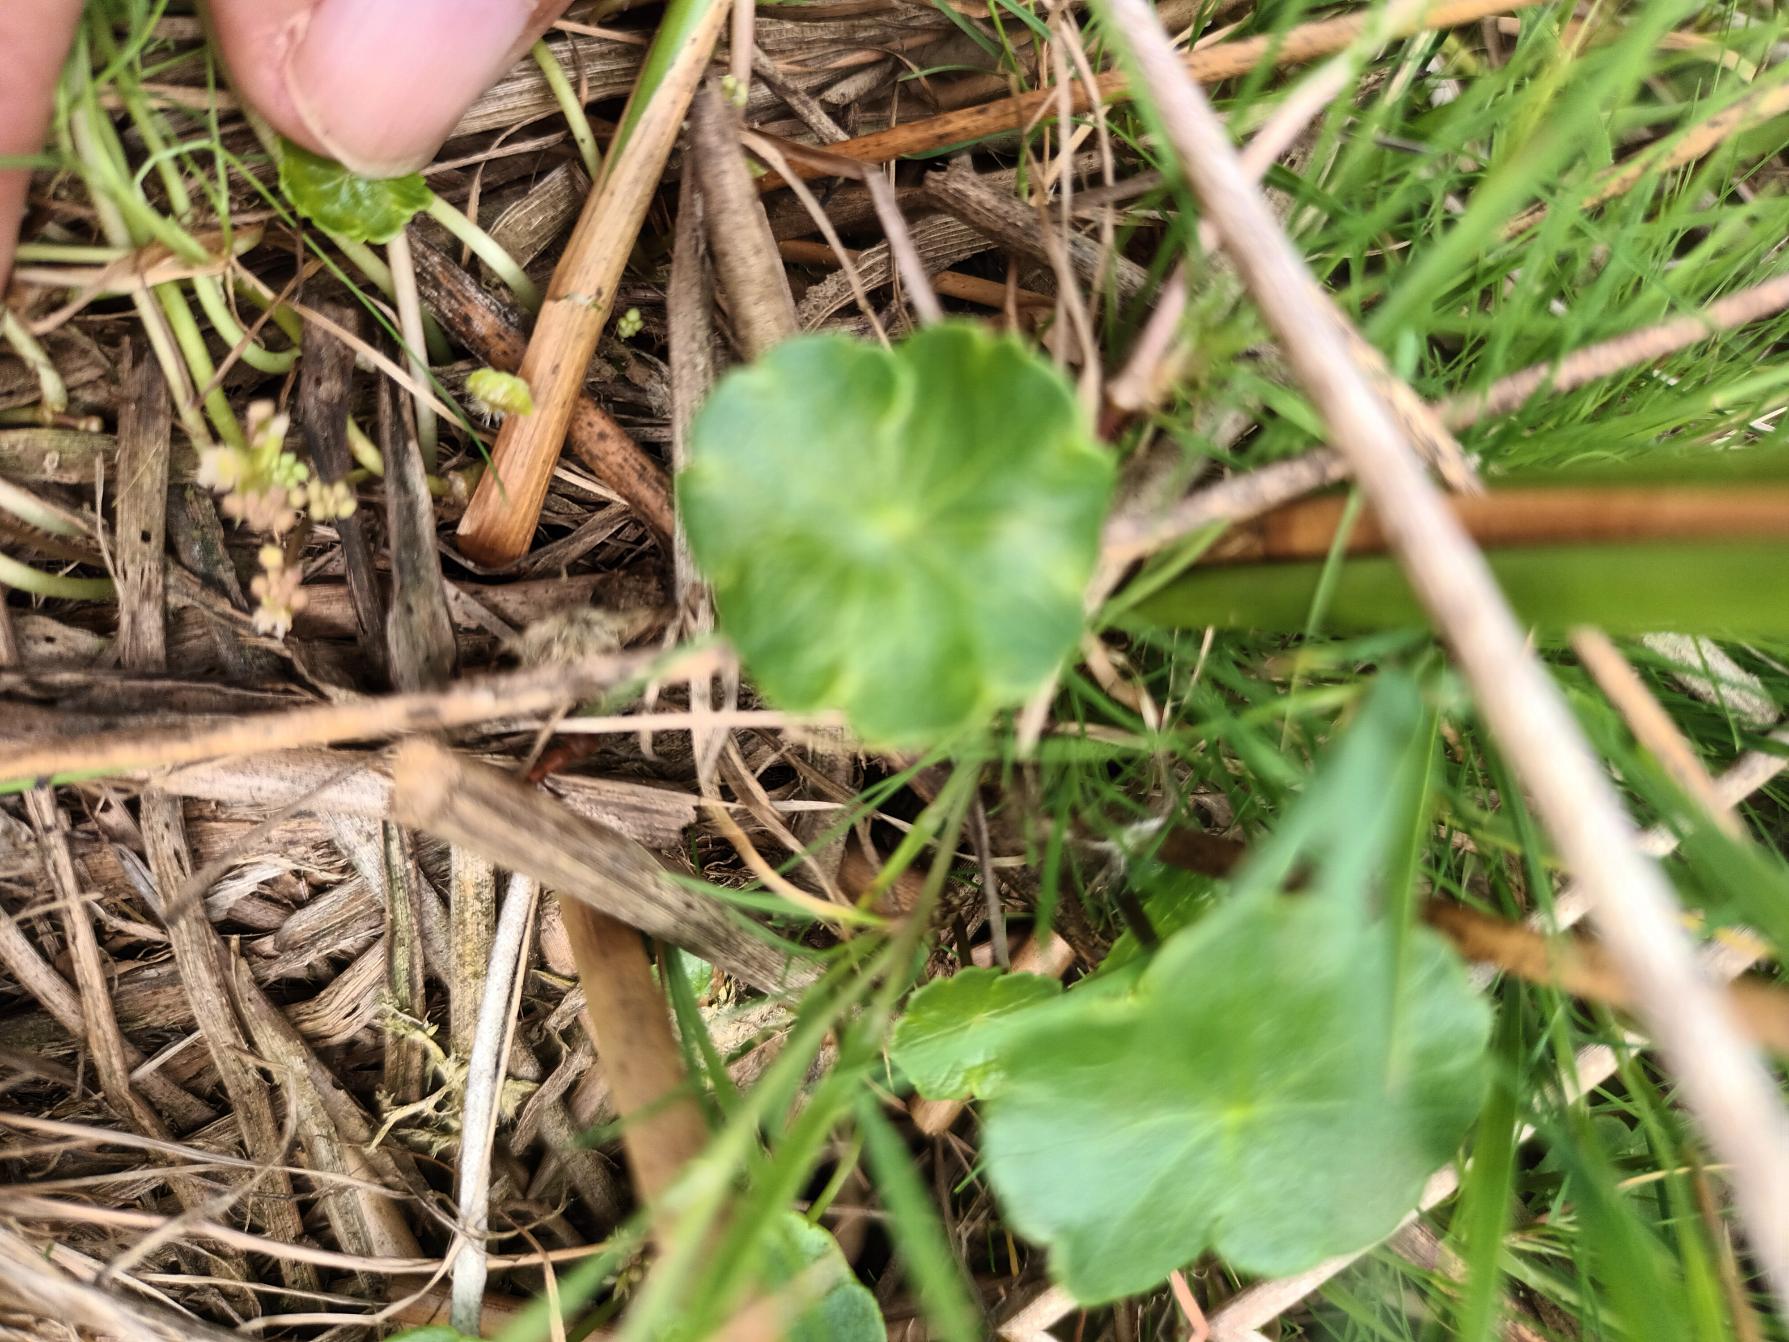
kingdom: Plantae
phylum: Tracheophyta
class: Magnoliopsida
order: Apiales
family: Araliaceae
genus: Hydrocotyle
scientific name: Hydrocotyle vulgaris
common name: Vandnavle
